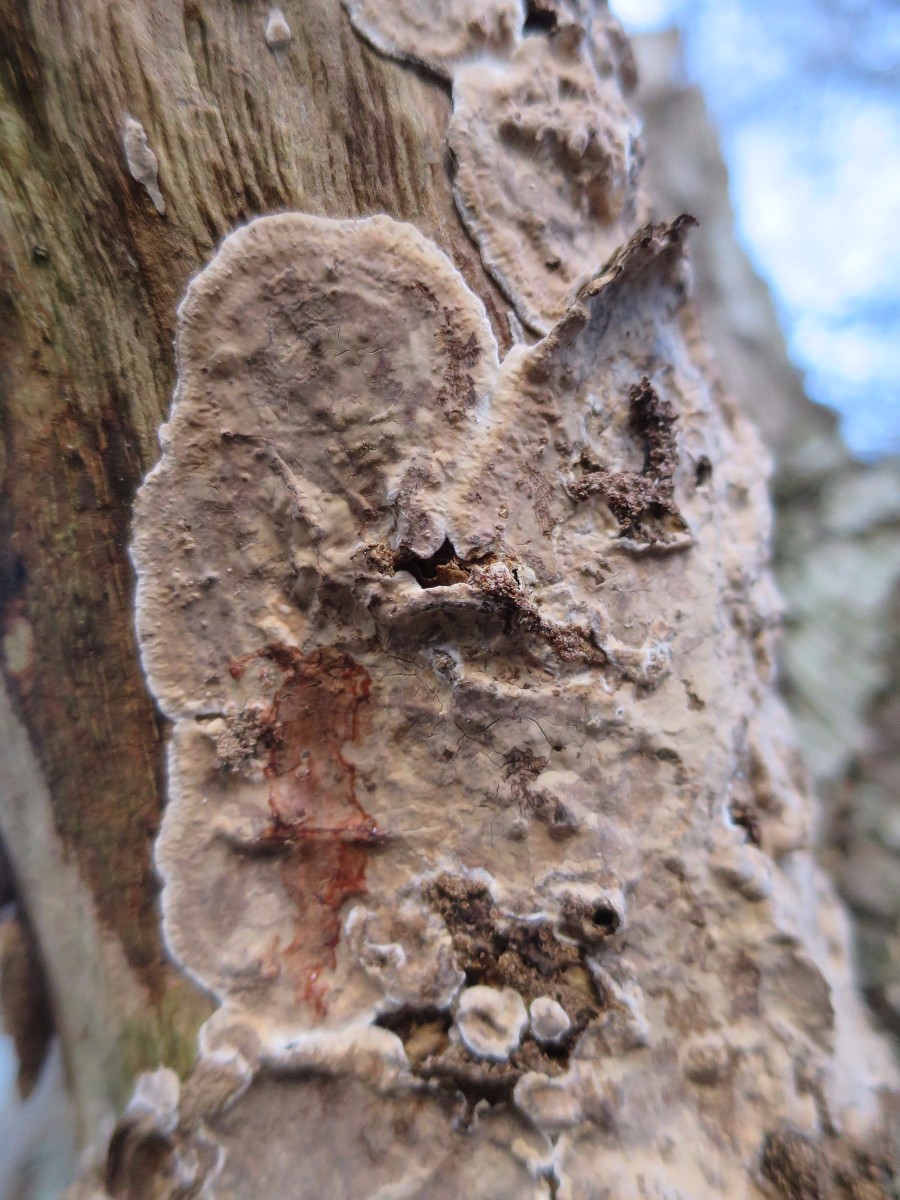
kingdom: Fungi
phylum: Basidiomycota
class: Agaricomycetes
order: Russulales
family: Stereaceae
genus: Stereum
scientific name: Stereum rugosum
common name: rynket lædersvamp
